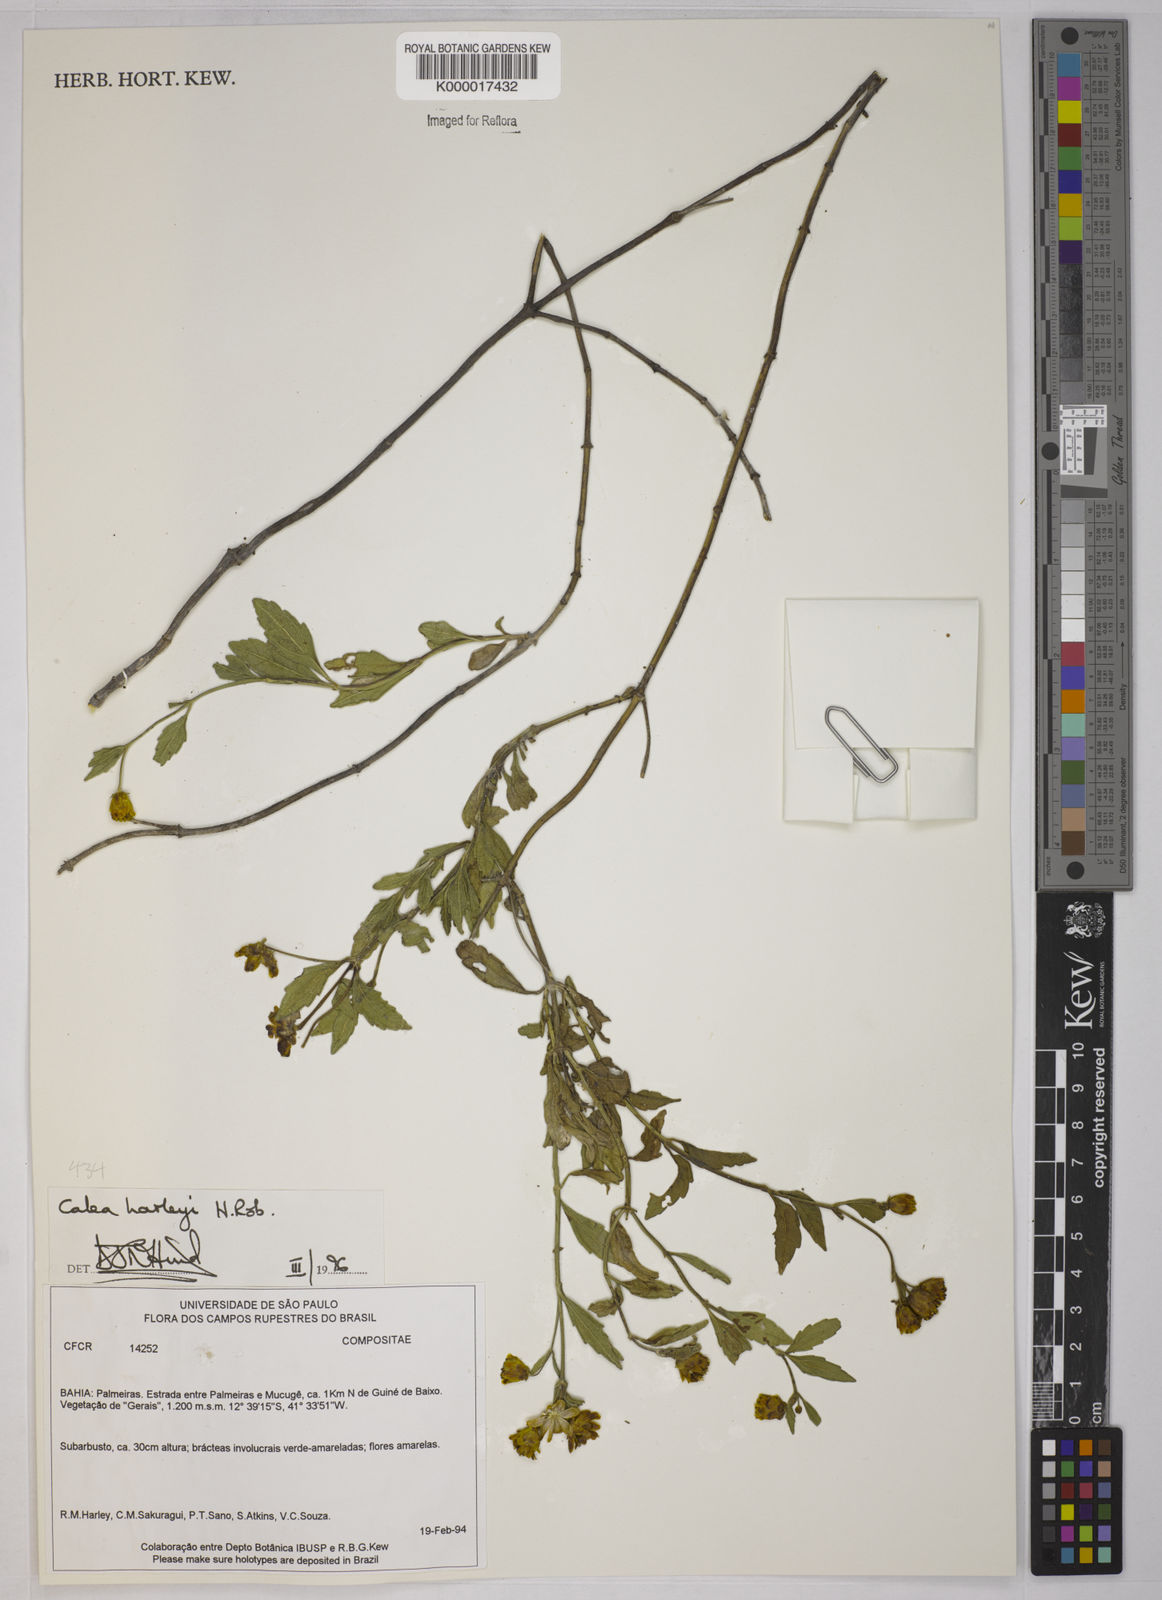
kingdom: Plantae
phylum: Tracheophyta
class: Magnoliopsida
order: Asterales
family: Asteraceae
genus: Calea
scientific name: Calea harleyi
